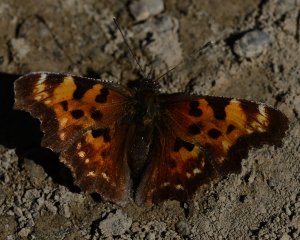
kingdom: Animalia
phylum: Arthropoda
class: Insecta
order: Lepidoptera
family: Nymphalidae
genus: Polygonia
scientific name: Polygonia faunus
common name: Green Comma
